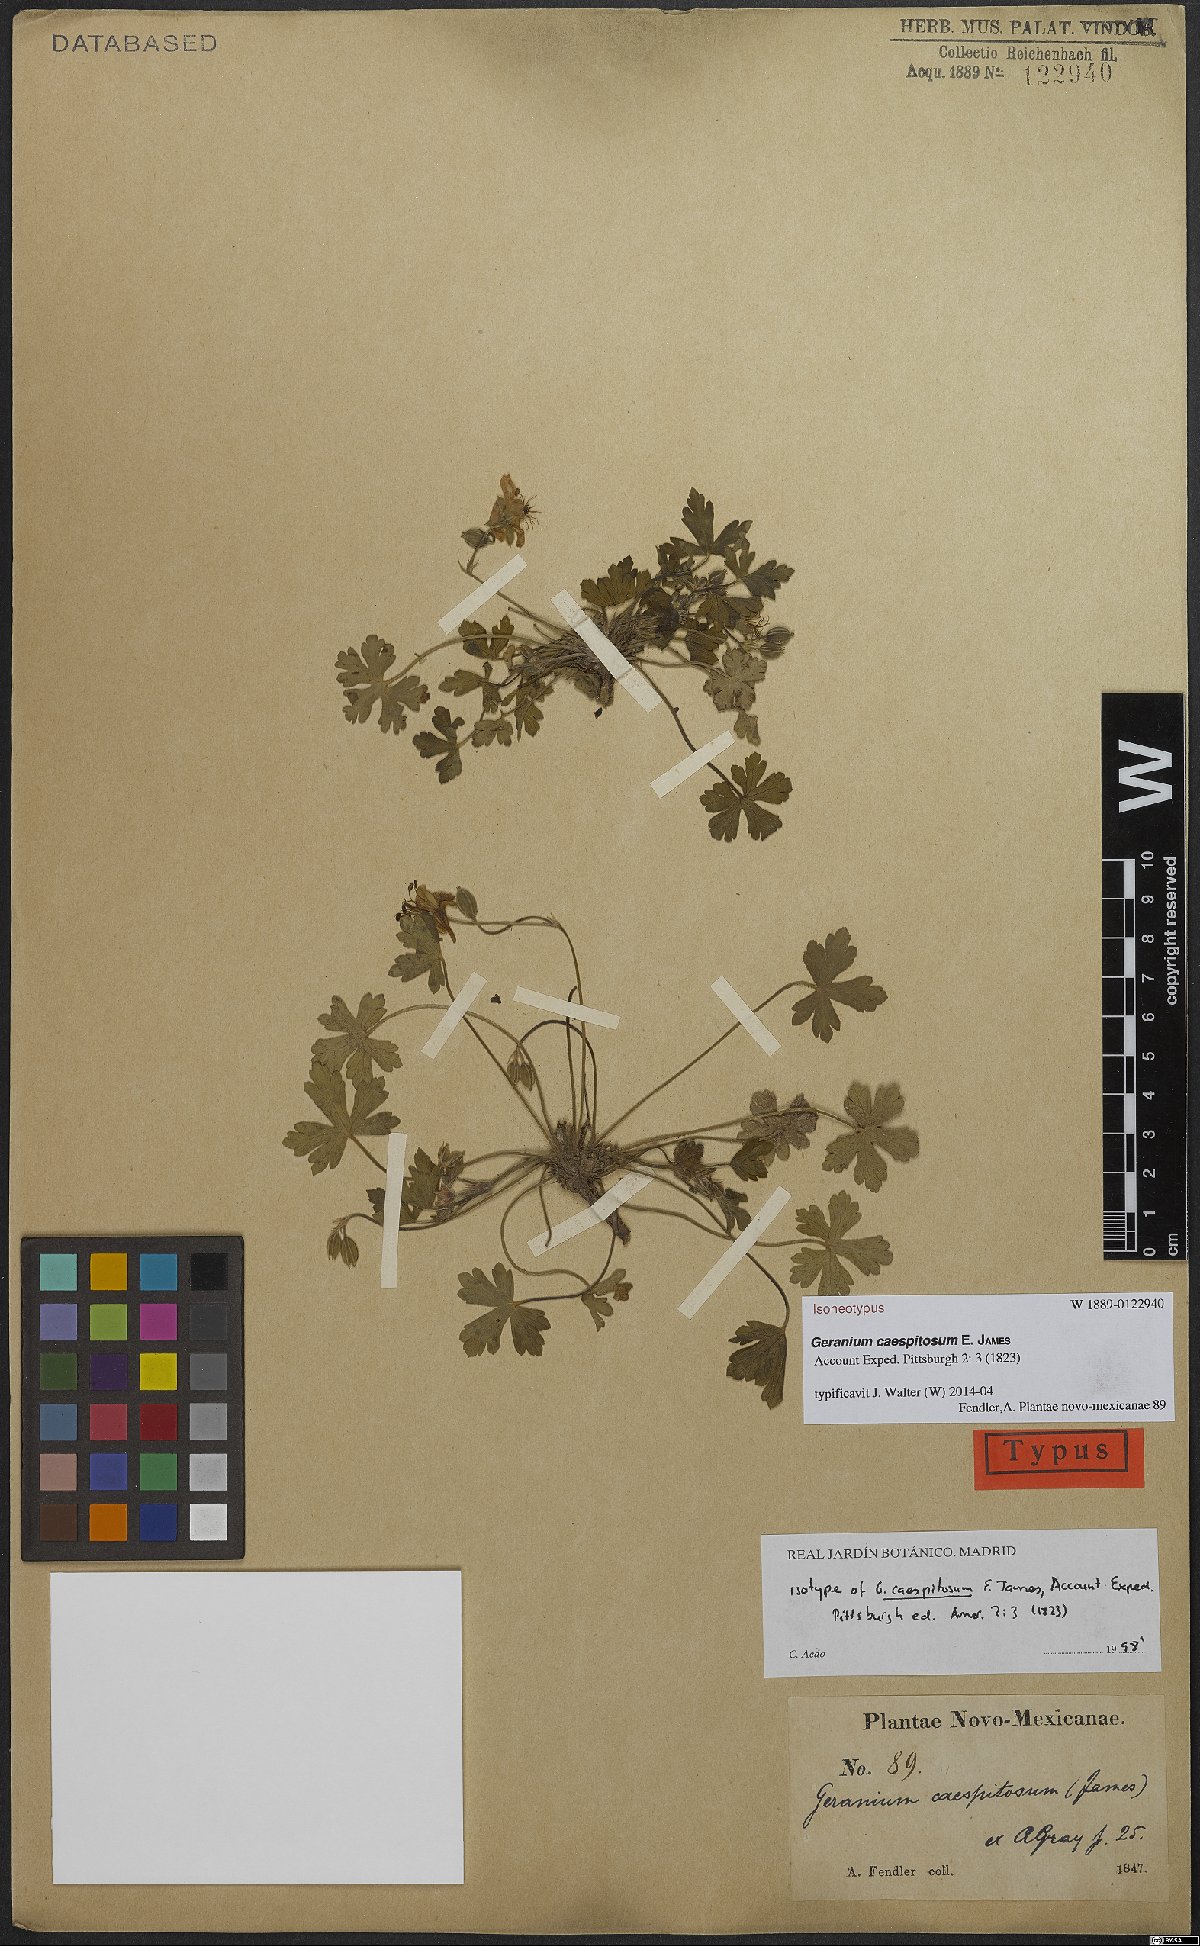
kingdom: Plantae
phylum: Tracheophyta
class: Magnoliopsida
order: Geraniales
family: Geraniaceae
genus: Geranium
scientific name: Geranium caespitosum
